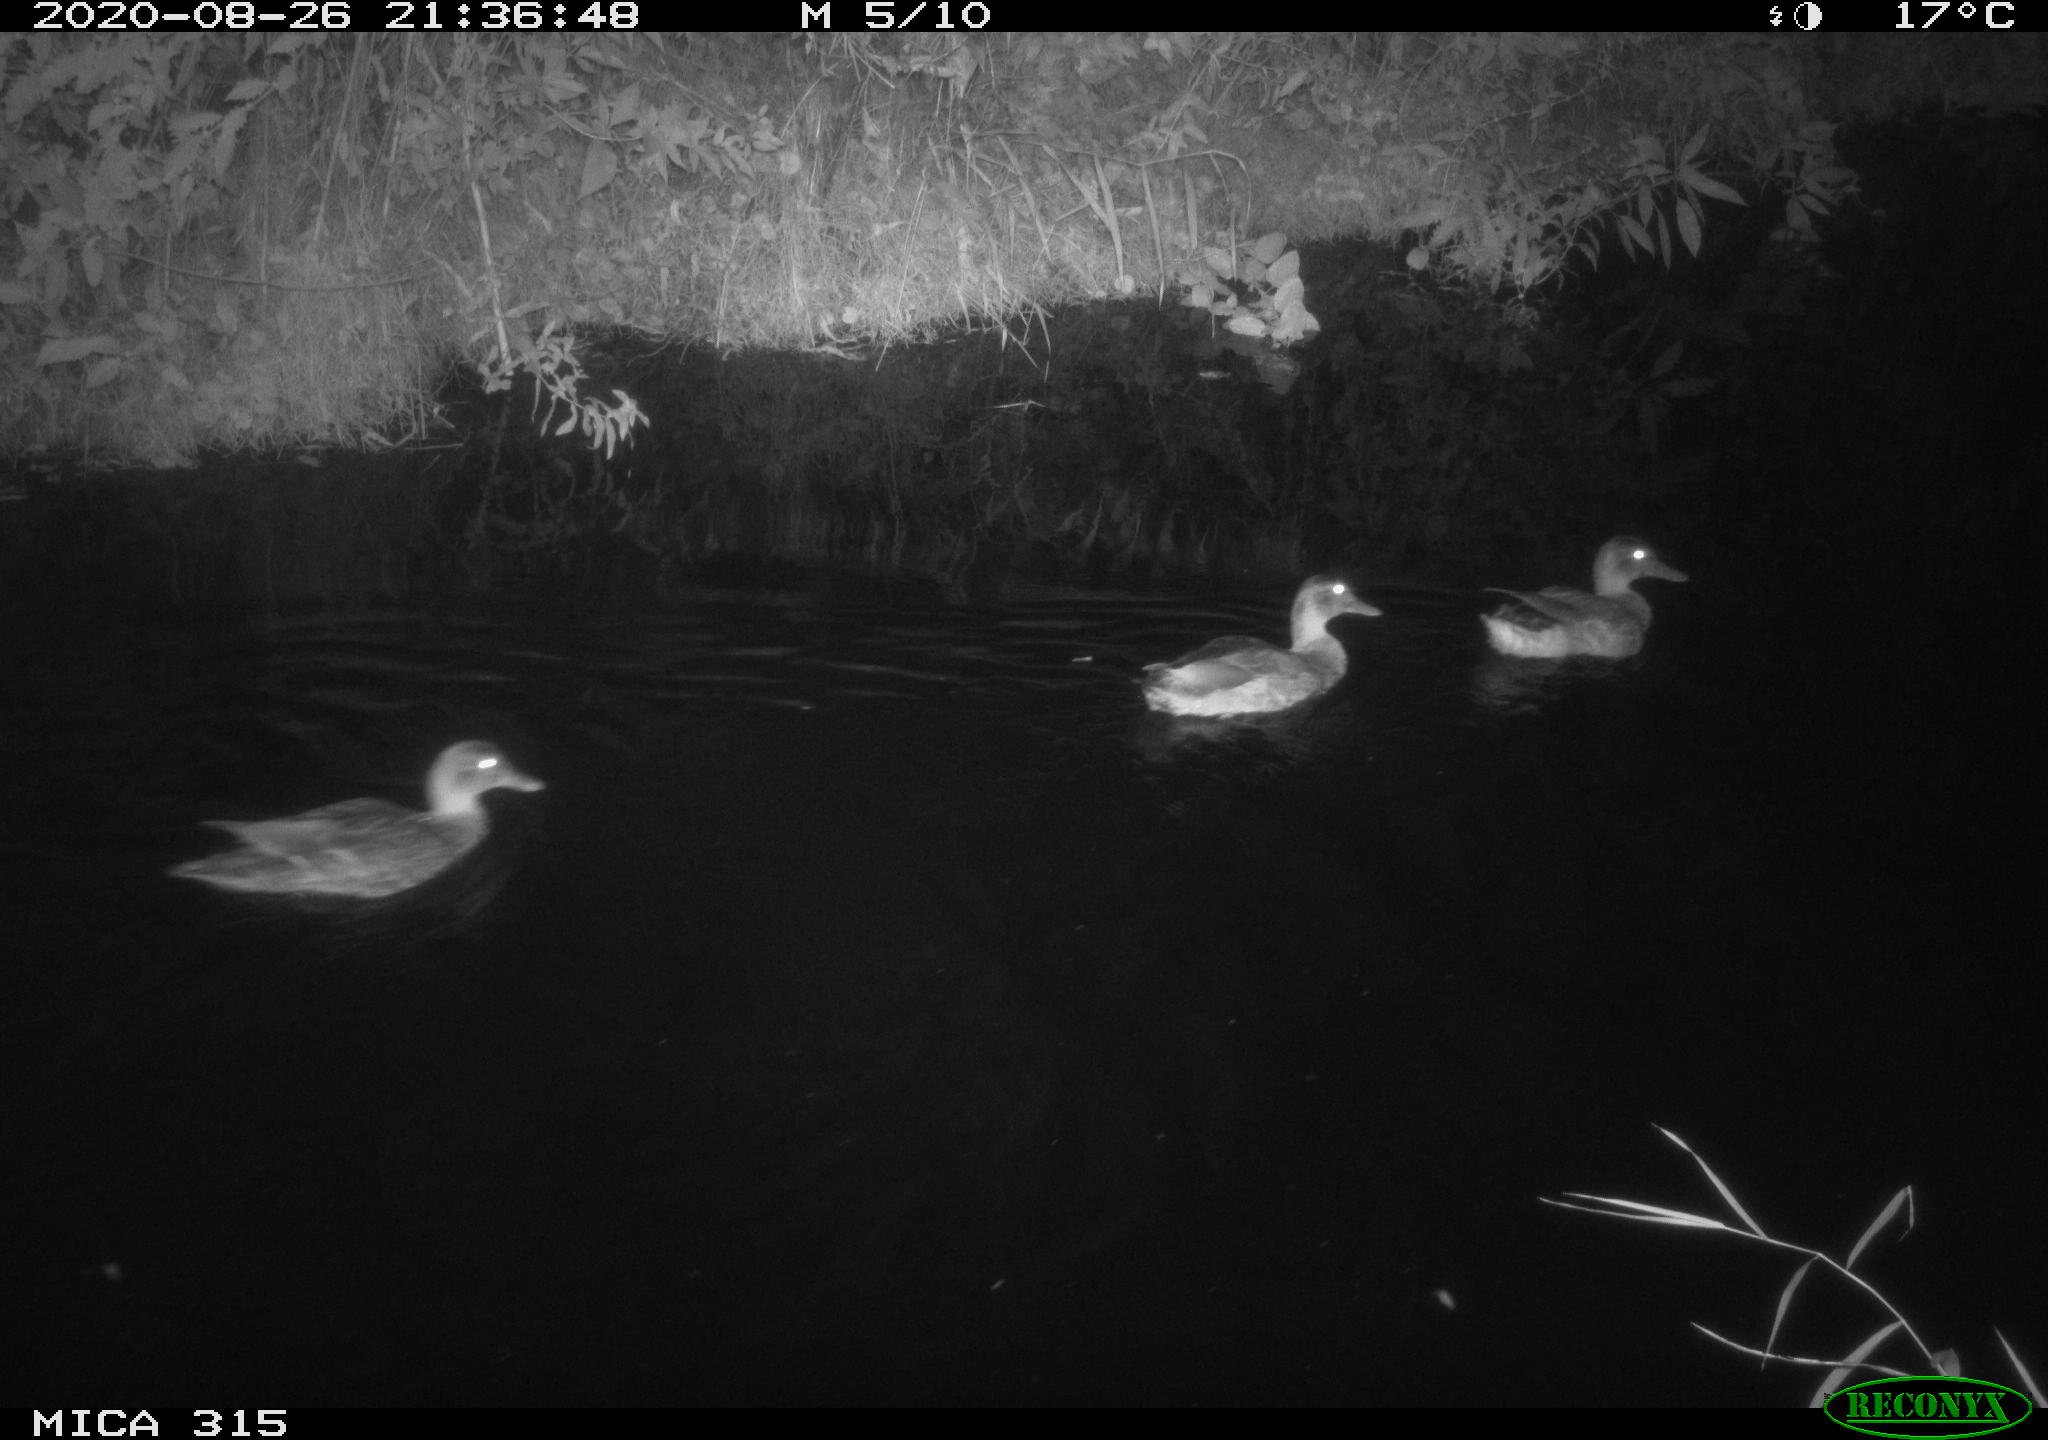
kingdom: Animalia
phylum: Chordata
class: Aves
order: Anseriformes
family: Anatidae
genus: Anas
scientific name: Anas platyrhynchos
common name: Mallard
